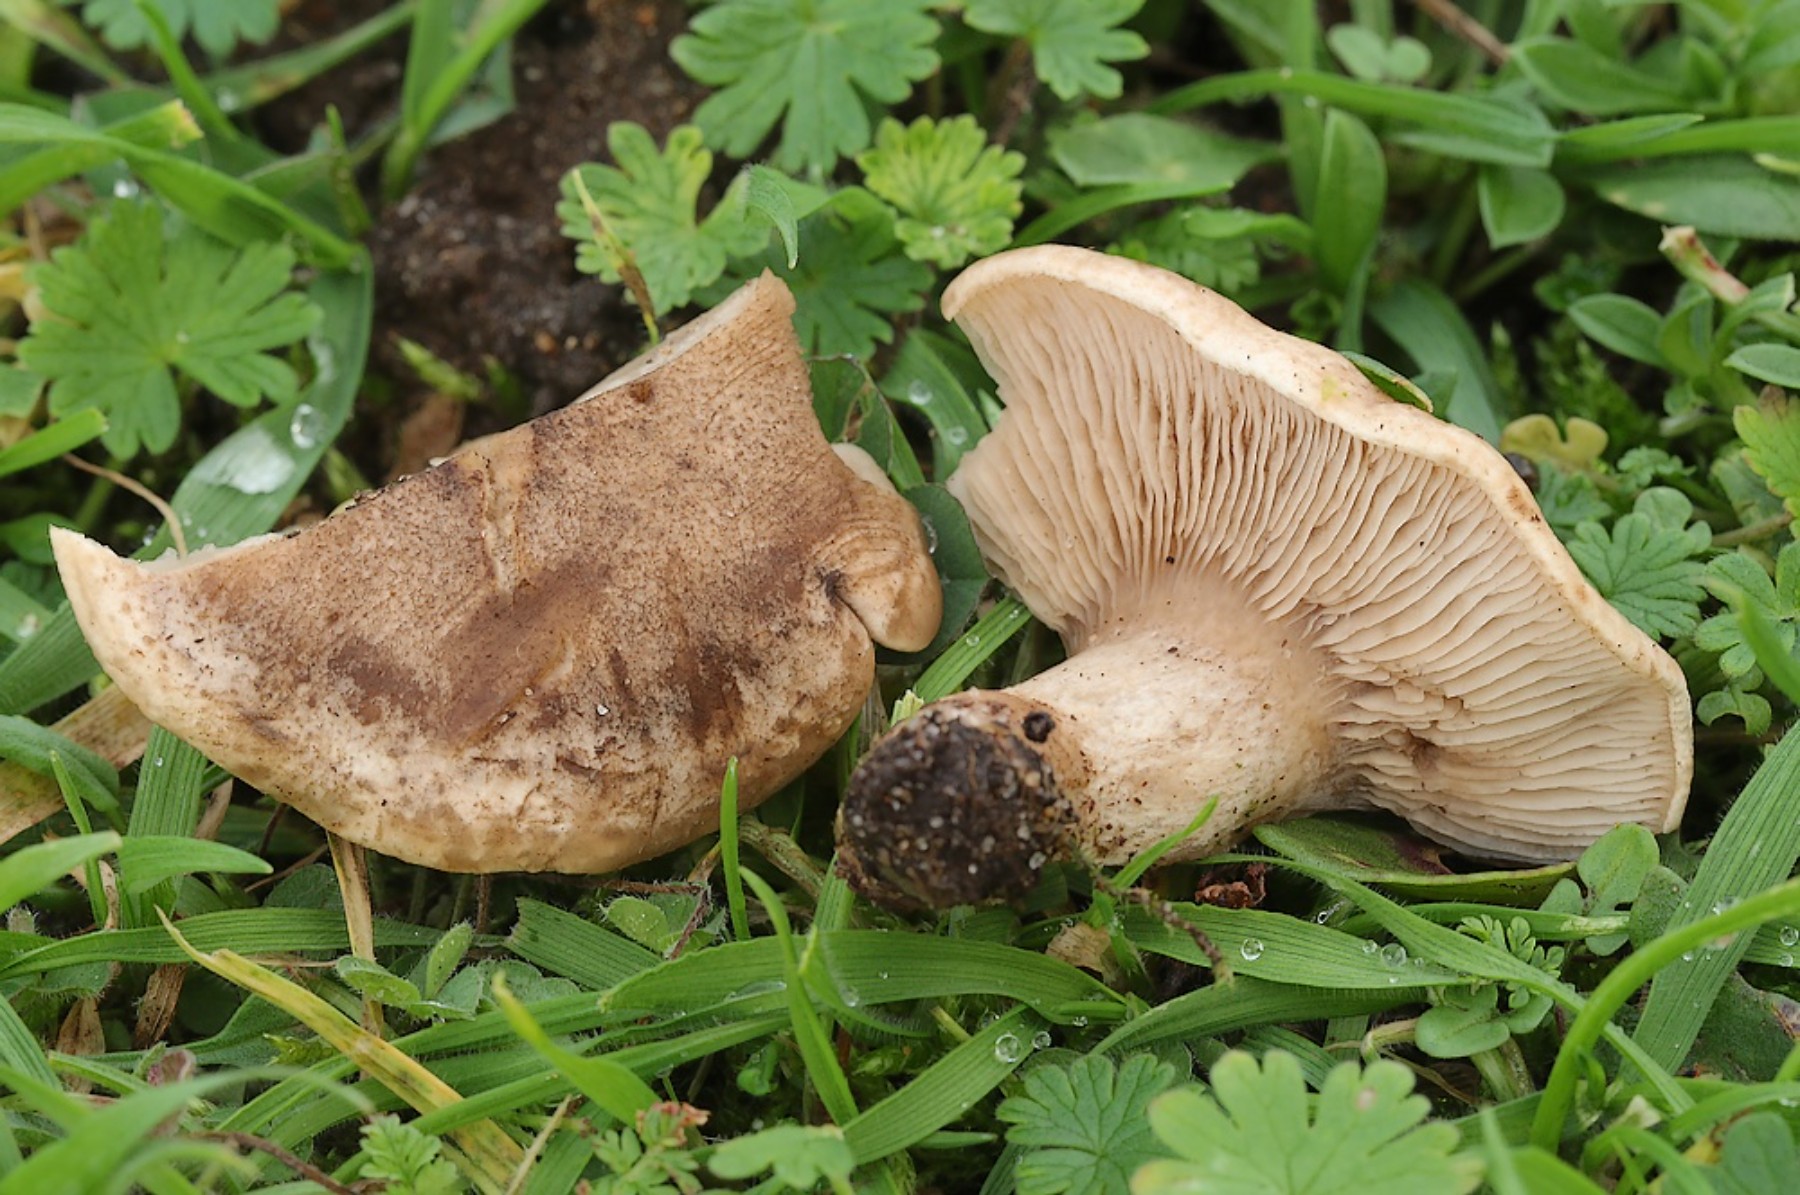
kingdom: Fungi
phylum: Basidiomycota
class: Agaricomycetes
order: Agaricales
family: Tricholomataceae
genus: Lulesia
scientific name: Lulesia
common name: sortnende troldhat
